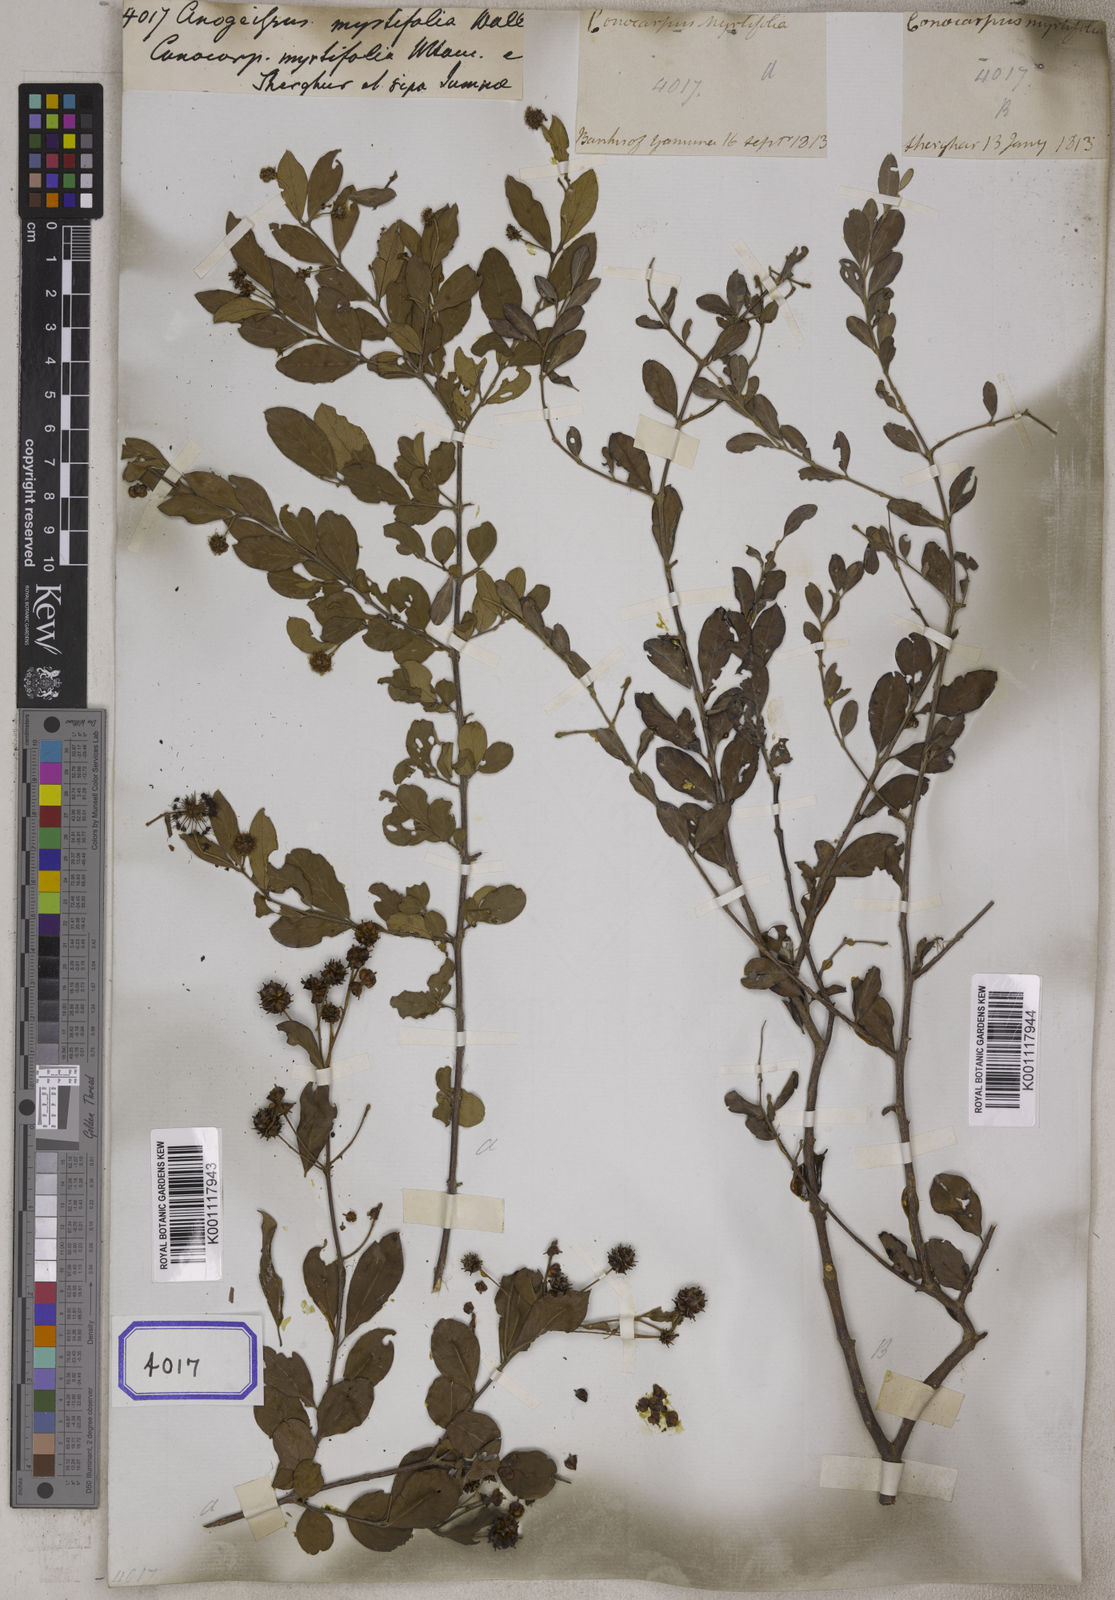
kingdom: Plantae
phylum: Tracheophyta
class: Magnoliopsida
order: Myrtales
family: Combretaceae
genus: Terminalia
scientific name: Terminalia pendula
